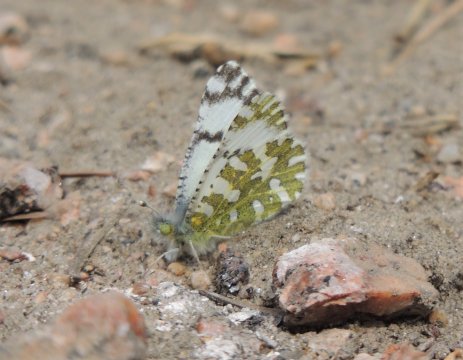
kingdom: Animalia
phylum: Arthropoda
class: Insecta
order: Lepidoptera
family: Pieridae
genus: Euchloe
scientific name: Euchloe lotta
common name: Desert Marble
